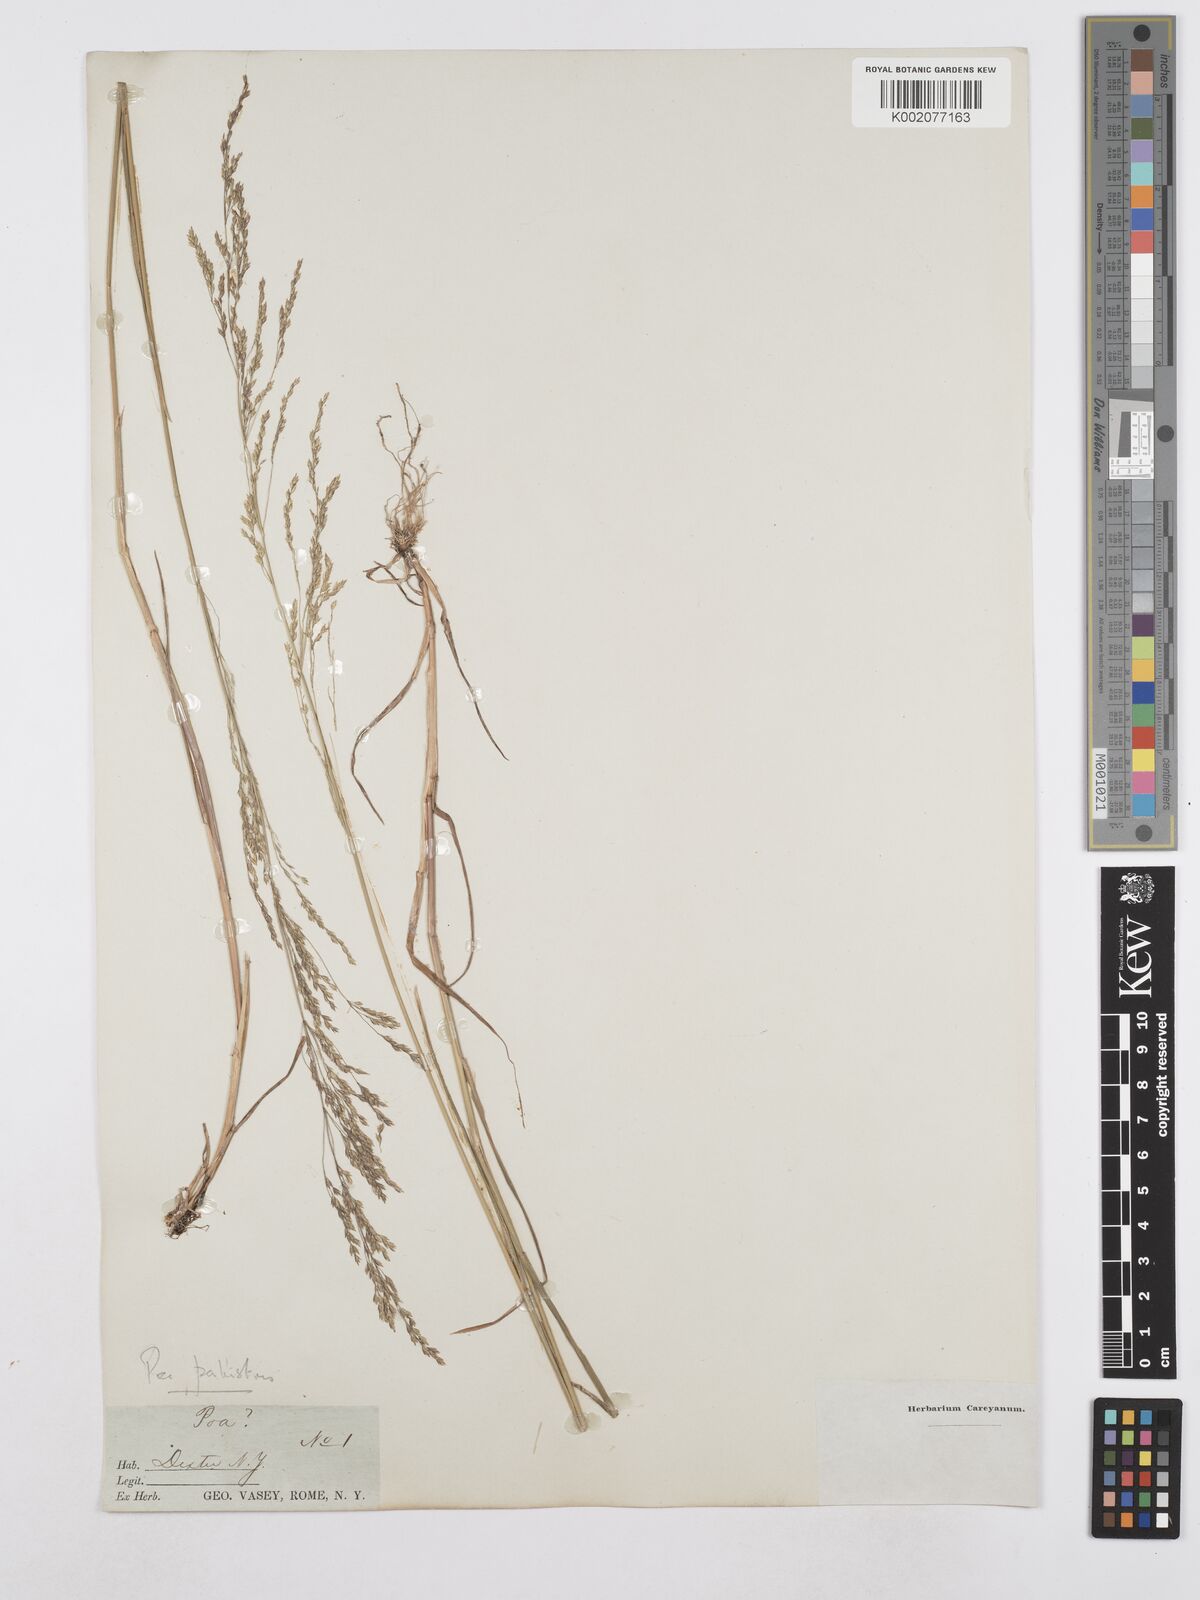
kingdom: Plantae
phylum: Tracheophyta
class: Liliopsida
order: Poales
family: Poaceae
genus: Poa
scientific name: Poa palustris
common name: Swamp meadow-grass
